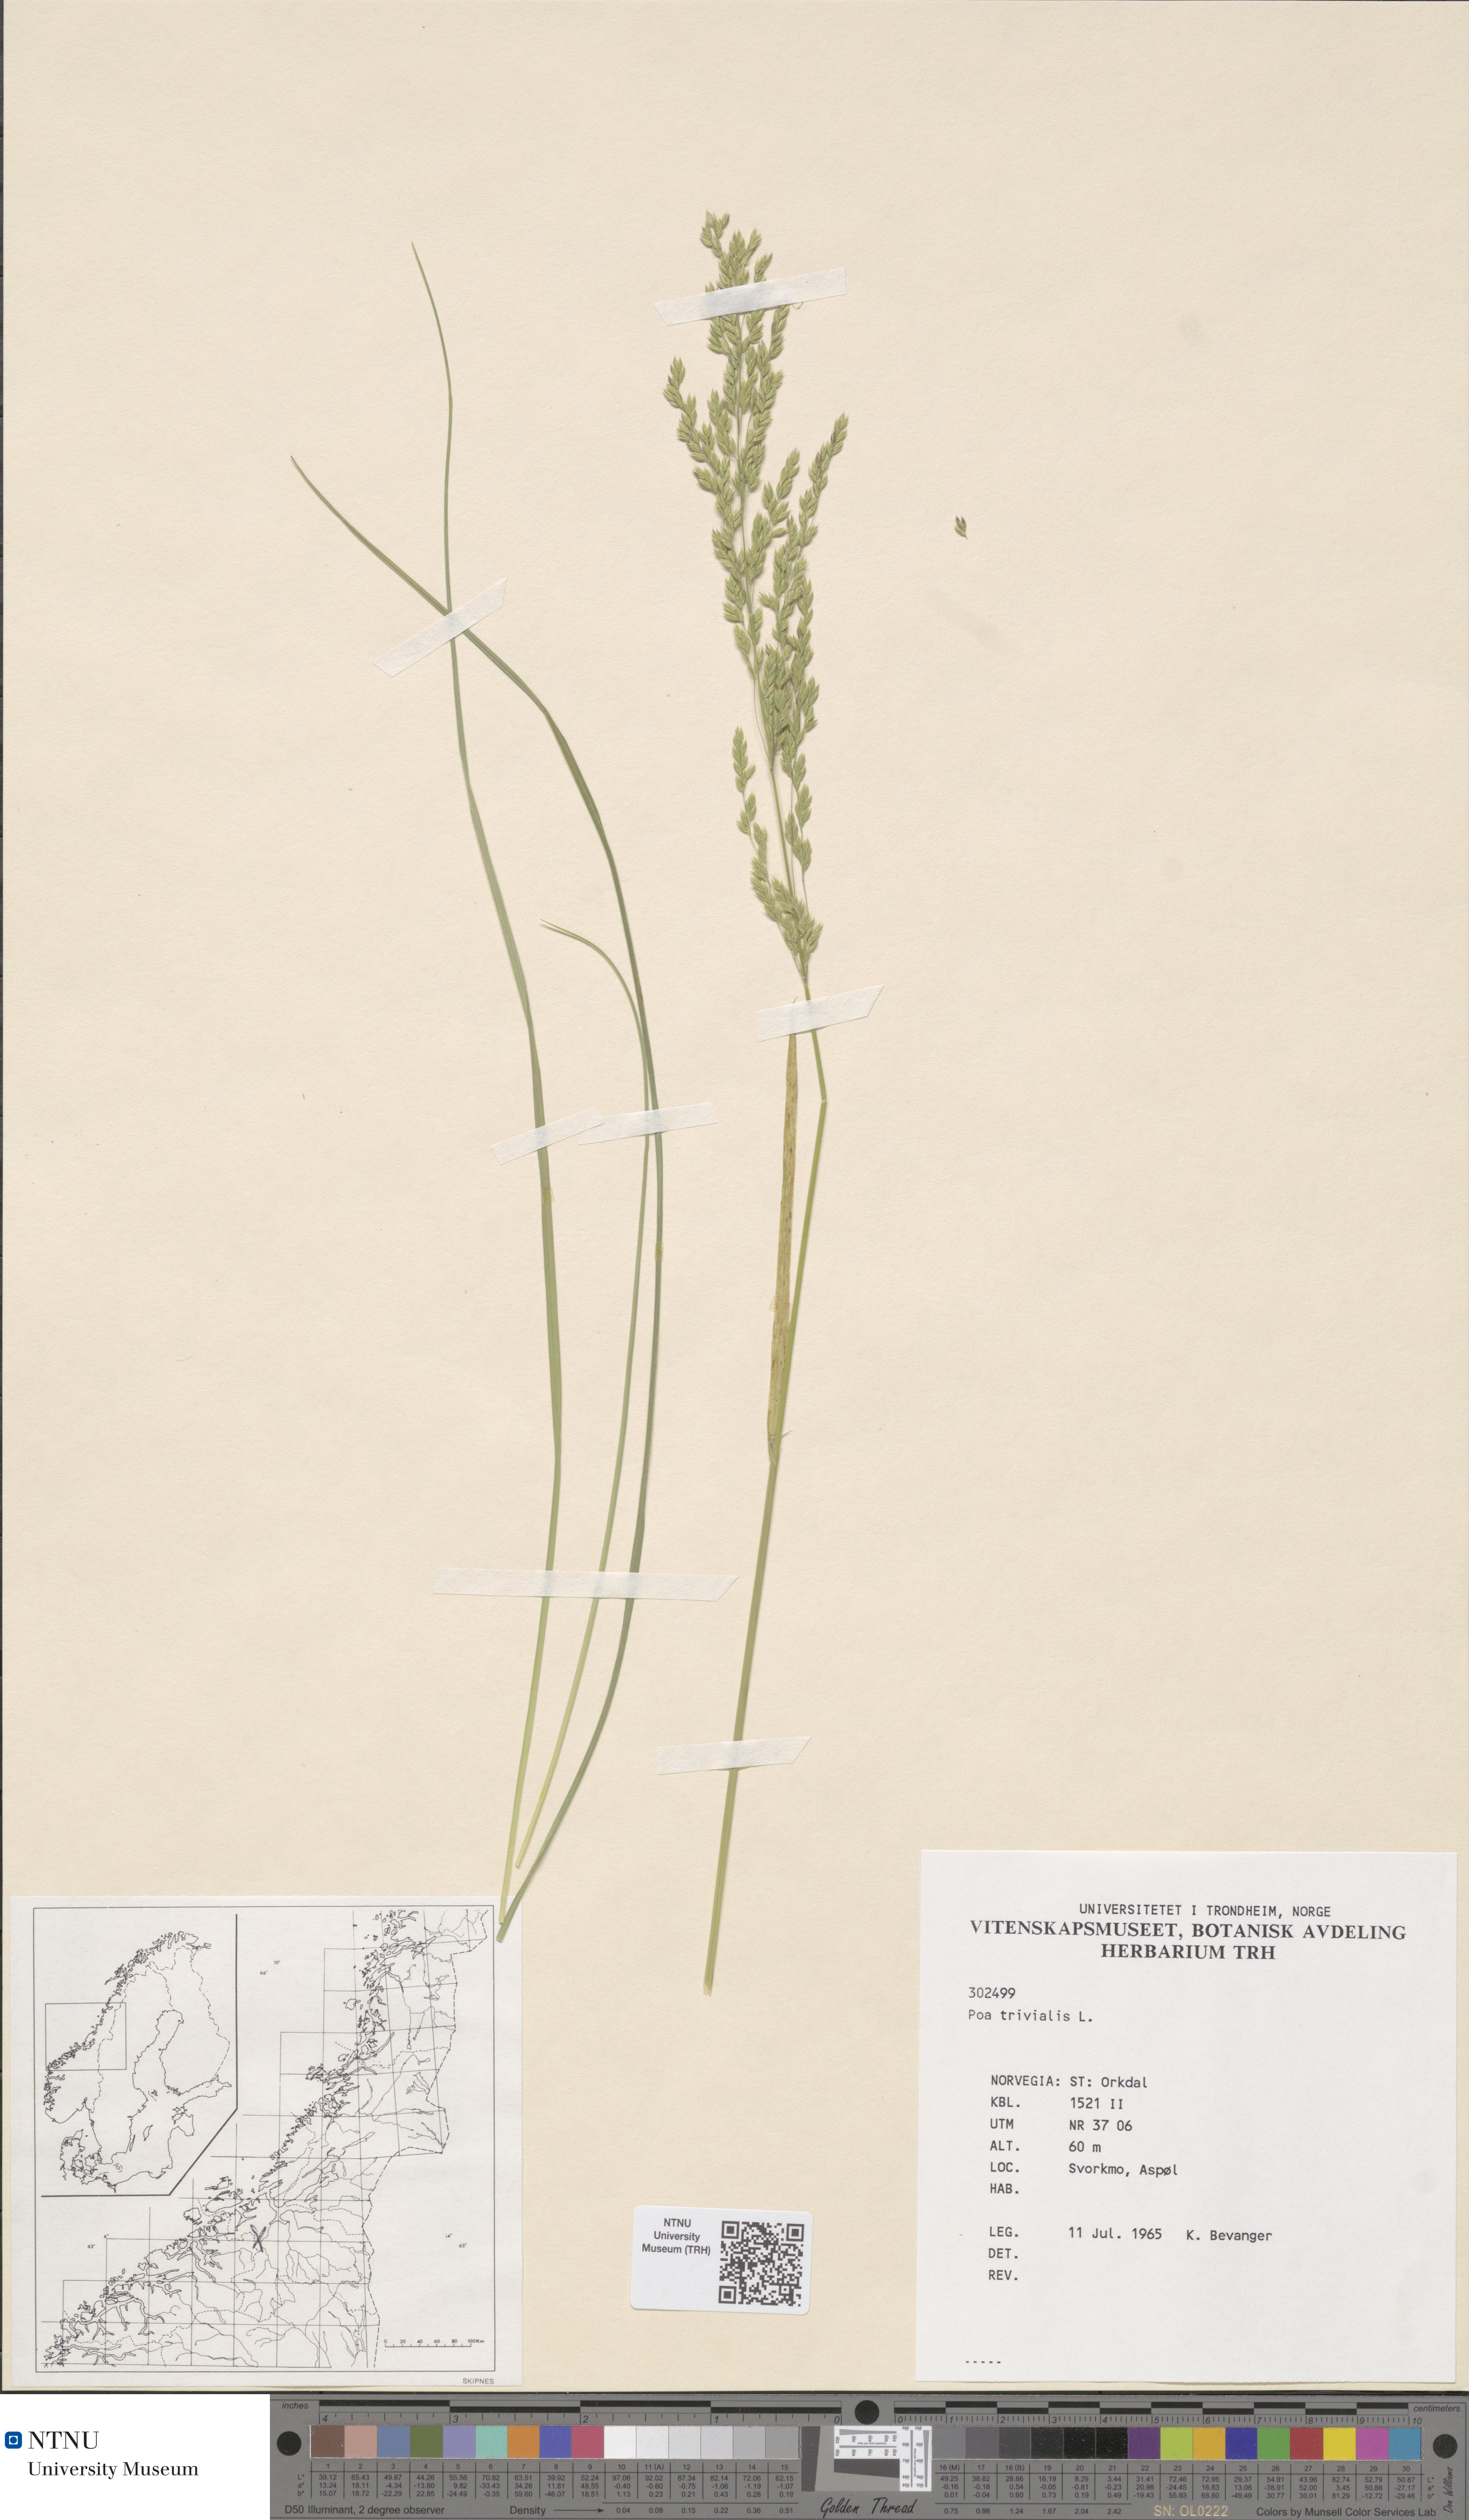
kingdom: Plantae
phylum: Tracheophyta
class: Liliopsida
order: Poales
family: Poaceae
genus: Poa
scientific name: Poa trivialis
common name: Rough bluegrass
